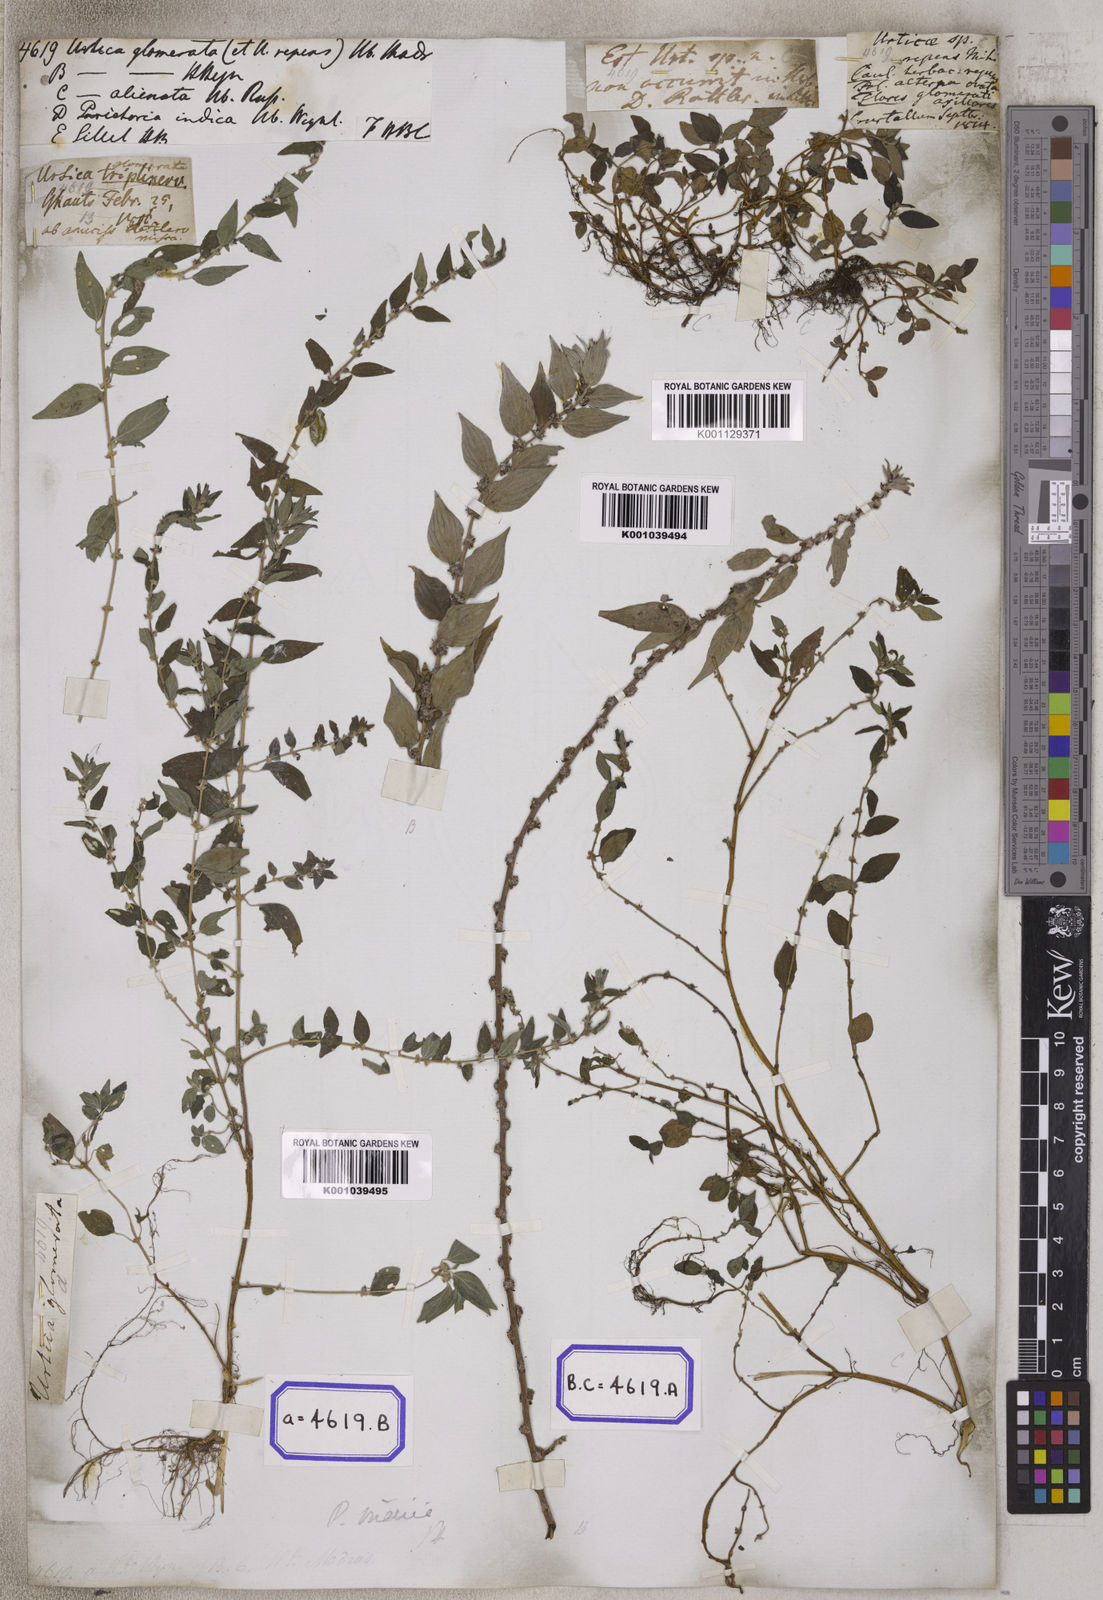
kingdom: Plantae
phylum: Tracheophyta
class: Magnoliopsida
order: Rosales
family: Urticaceae
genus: Pouzolzia
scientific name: Pouzolzia zeylanica
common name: Graceful pouzolzsbush
